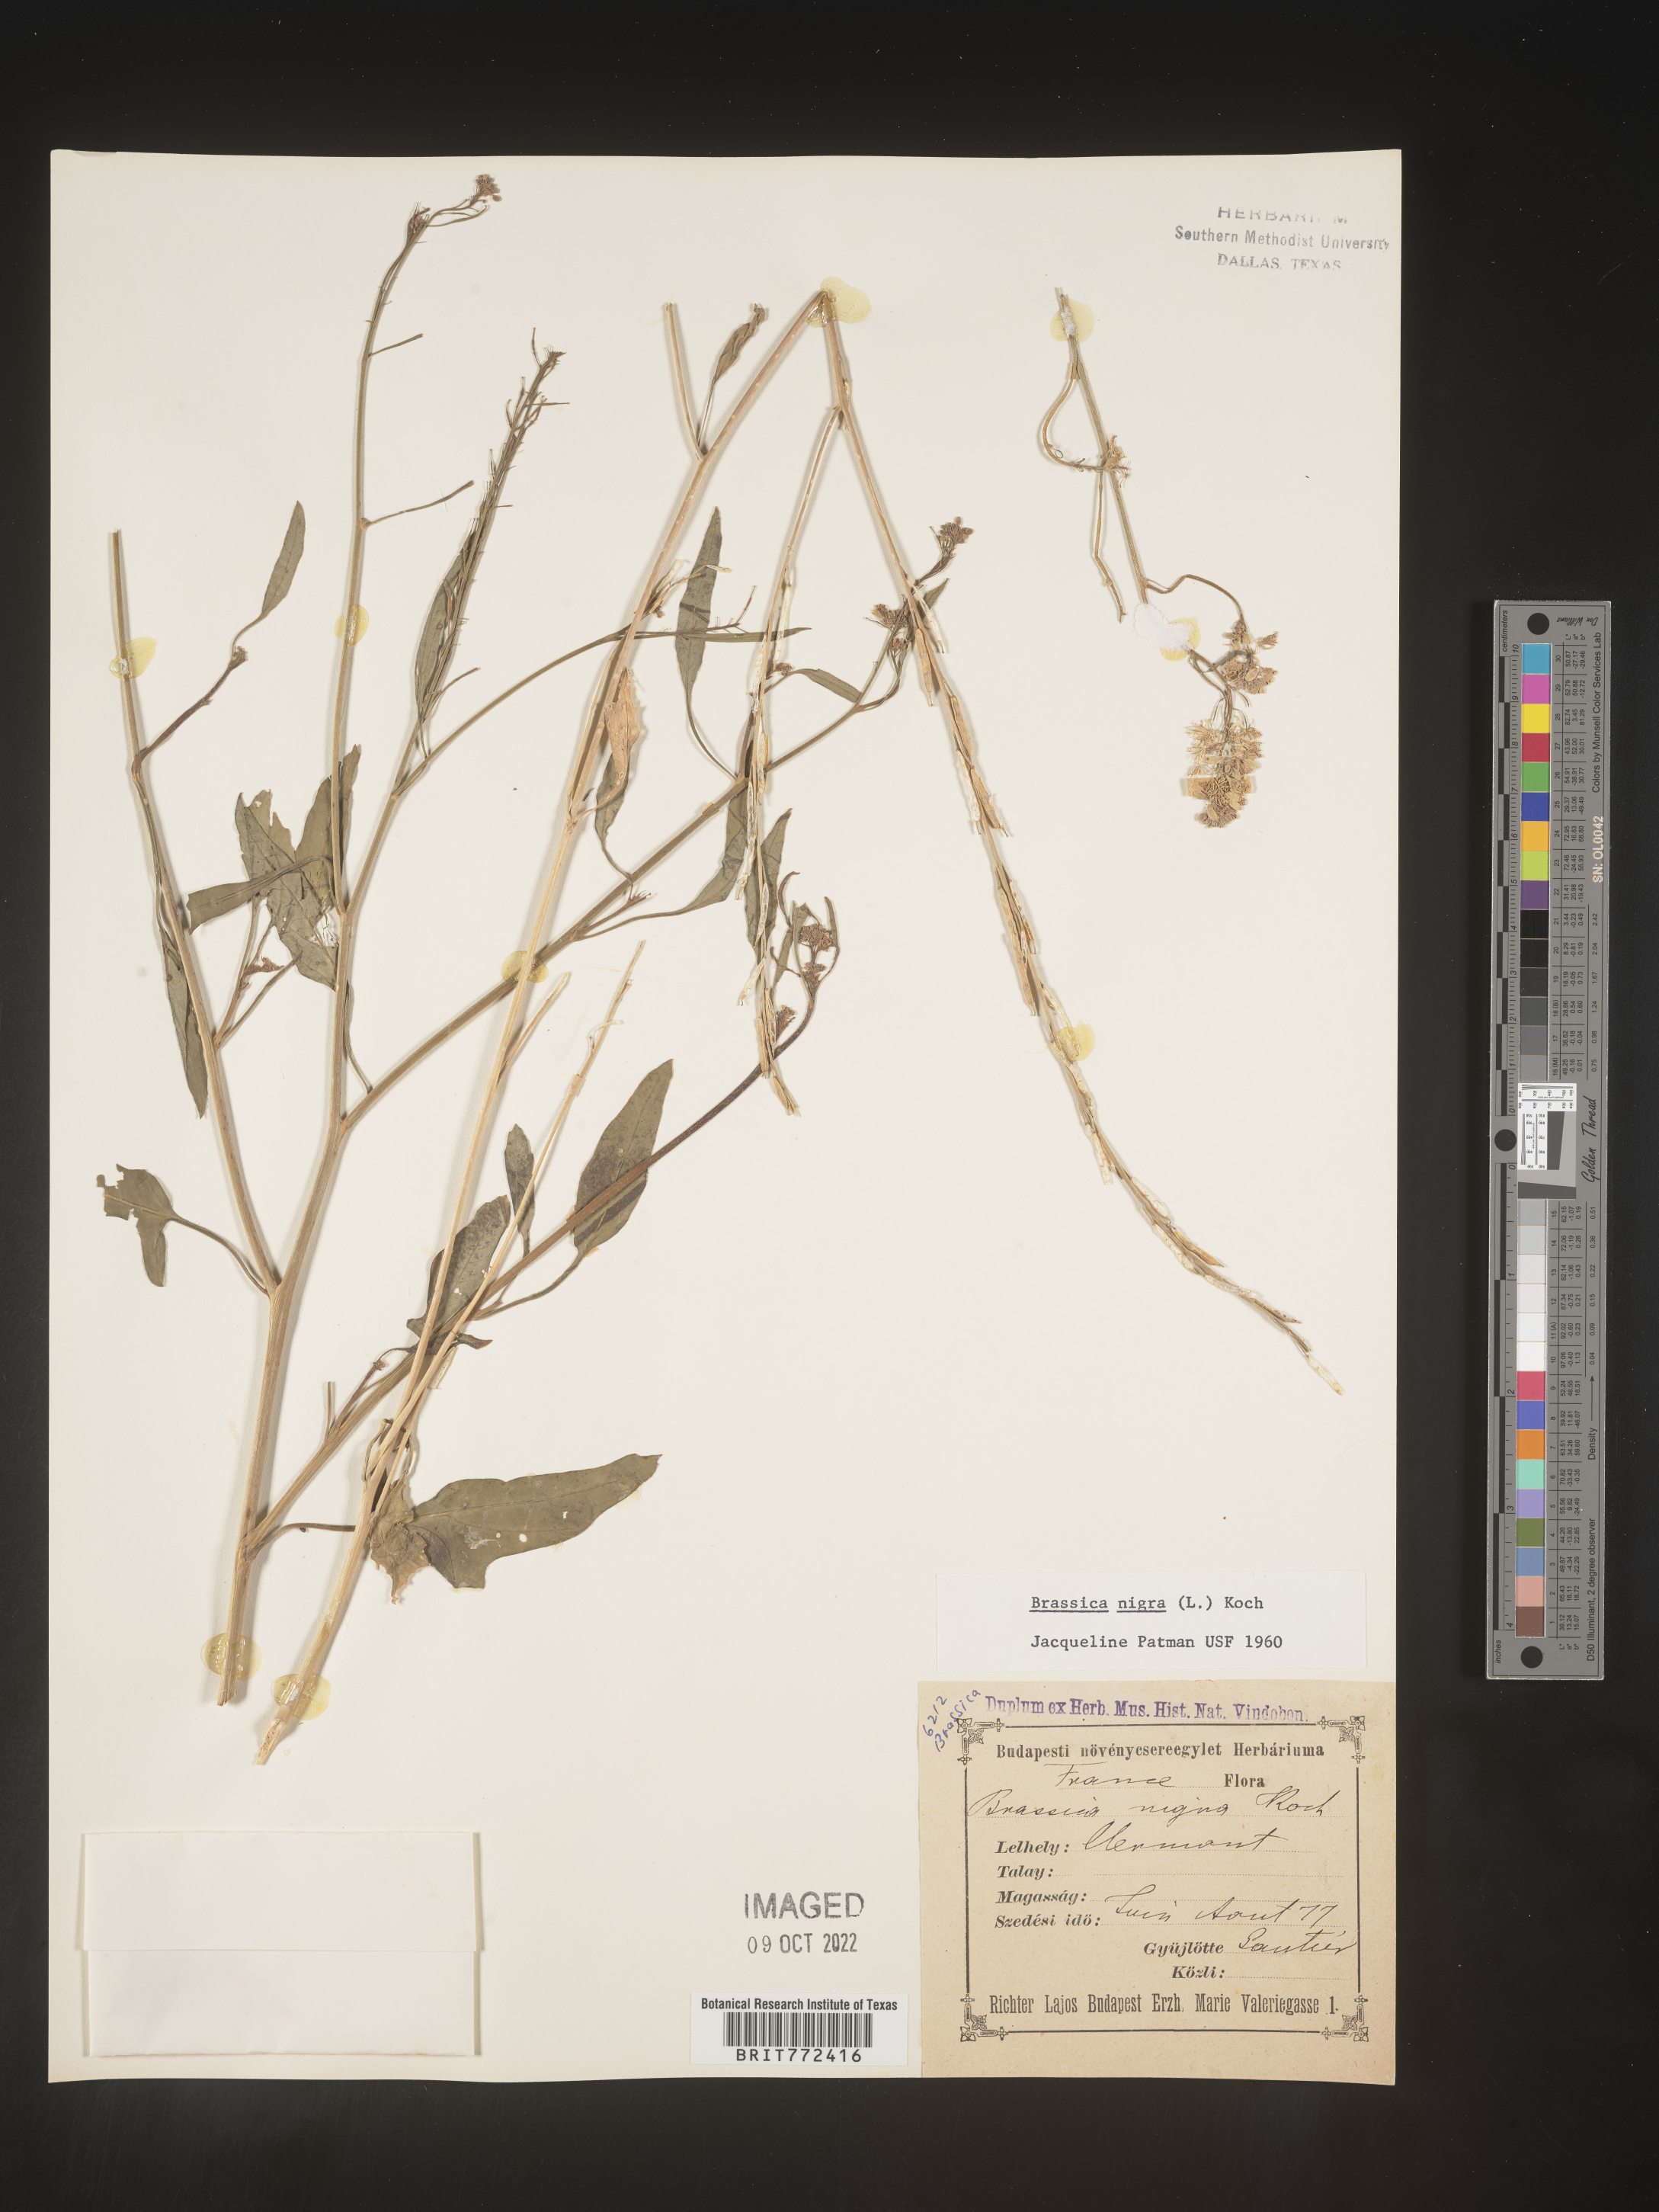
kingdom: Plantae
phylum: Tracheophyta
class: Magnoliopsida
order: Brassicales
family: Brassicaceae
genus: Brassica
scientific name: Brassica
